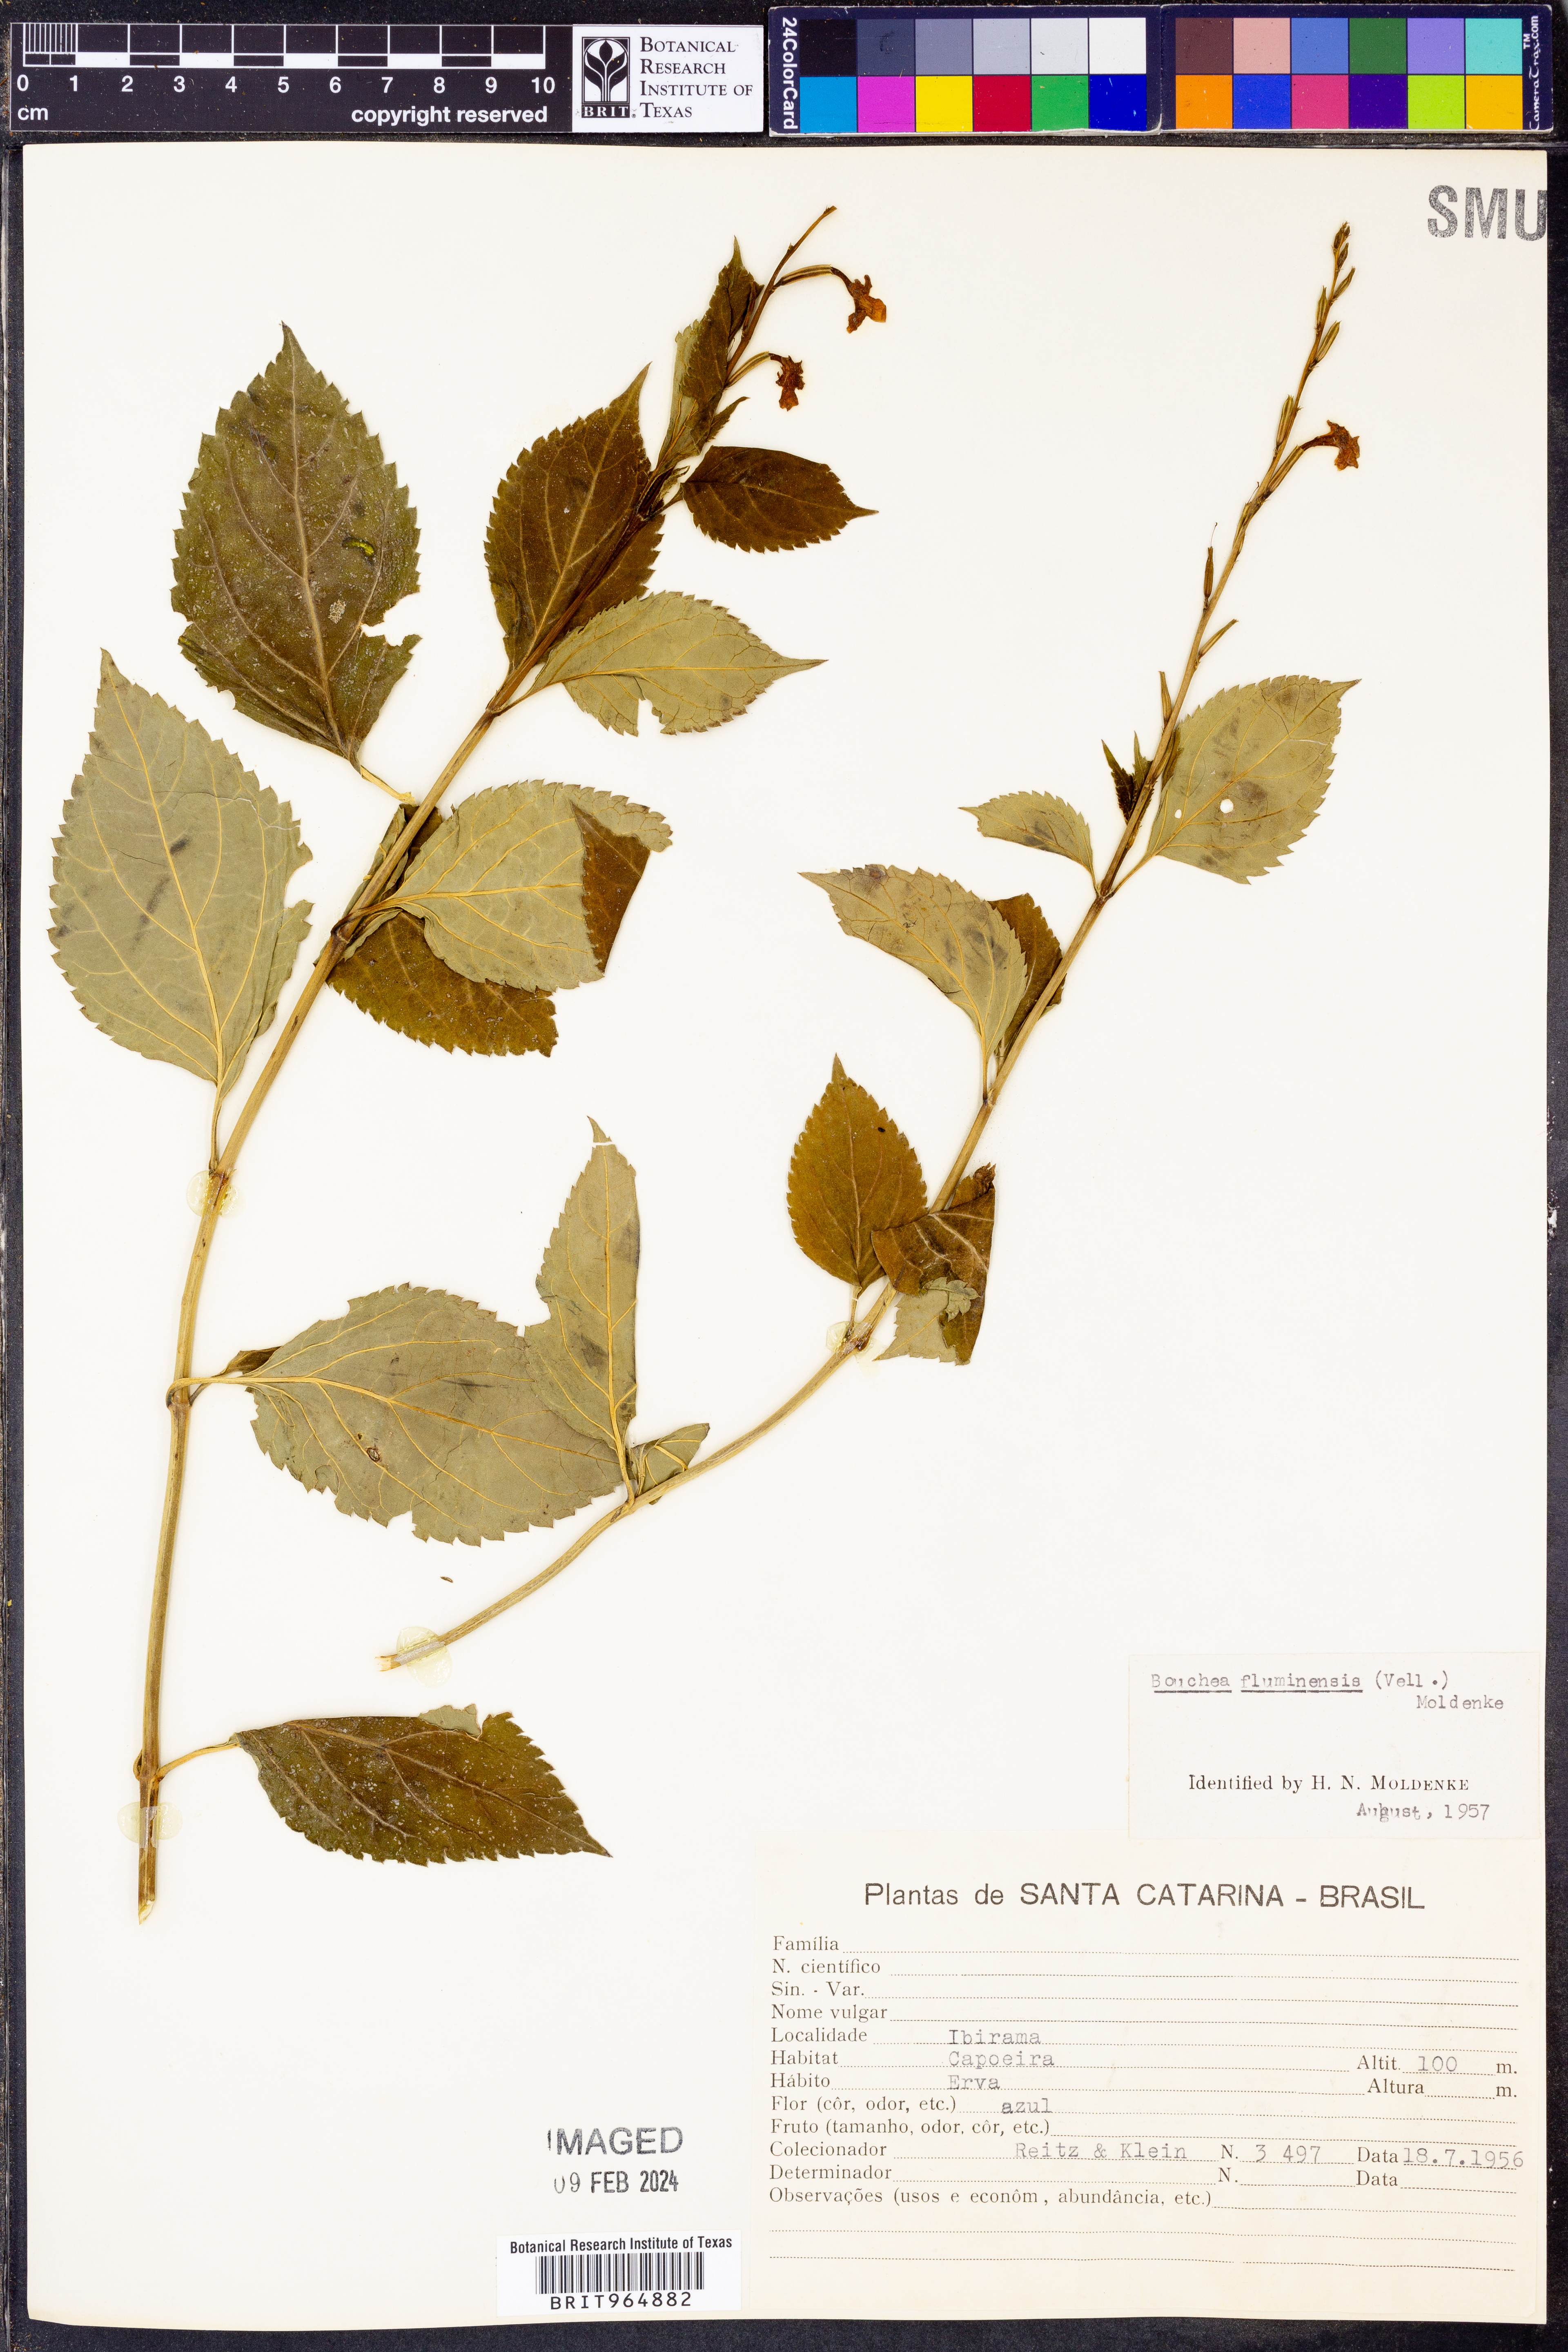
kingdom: Plantae
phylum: Tracheophyta
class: Magnoliopsida
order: Lamiales
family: Verbenaceae
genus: Bouchea
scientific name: Bouchea
